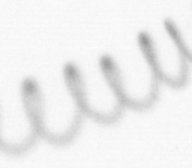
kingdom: Chromista
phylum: Ochrophyta
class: Bacillariophyceae
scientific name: Bacillariophyceae
